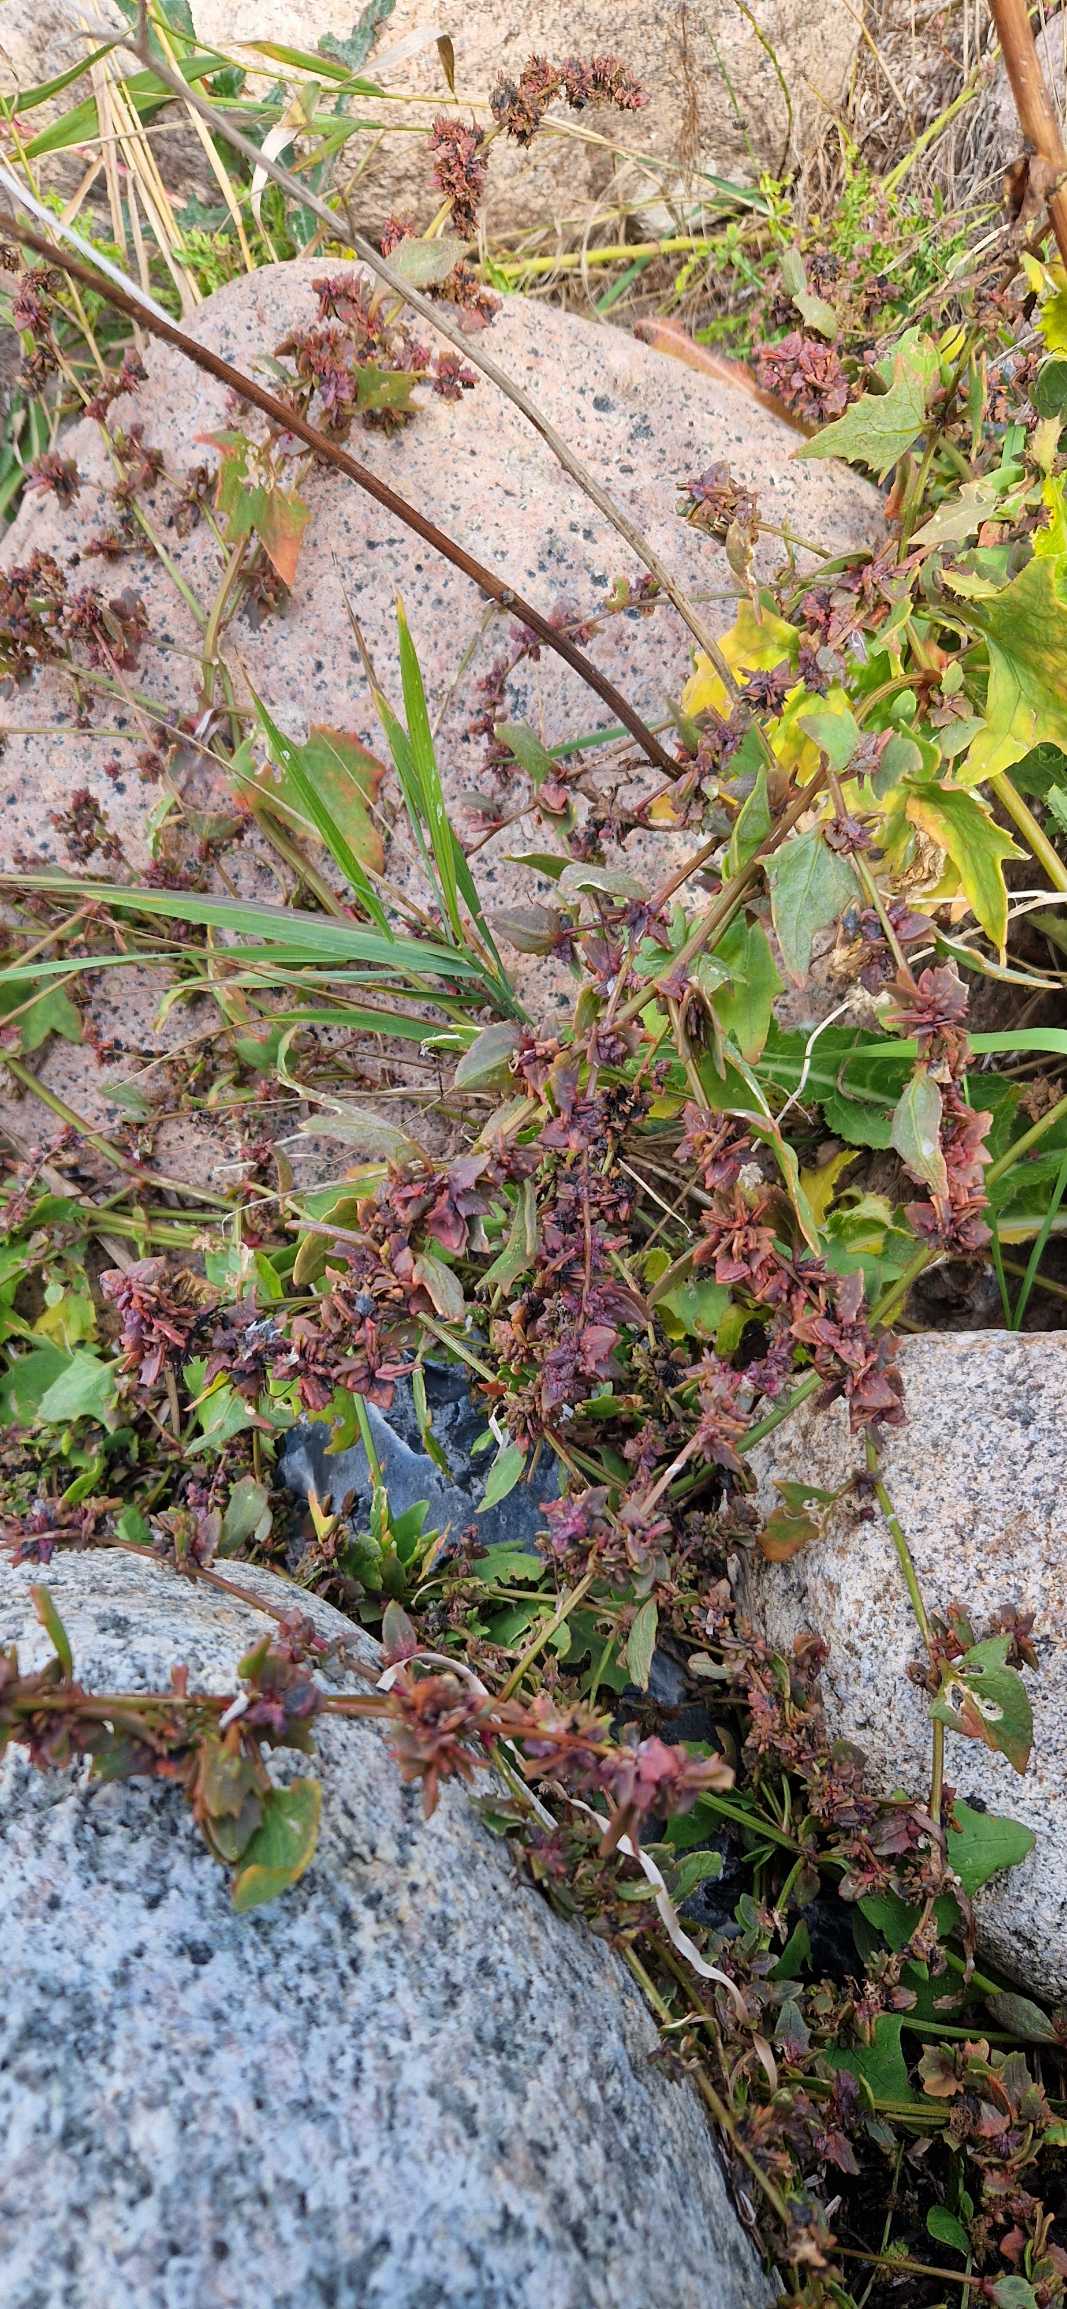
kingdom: Plantae
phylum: Tracheophyta
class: Magnoliopsida
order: Caryophyllales
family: Amaranthaceae
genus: Atriplex
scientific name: Atriplex prostrata
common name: Spyd-mælde
